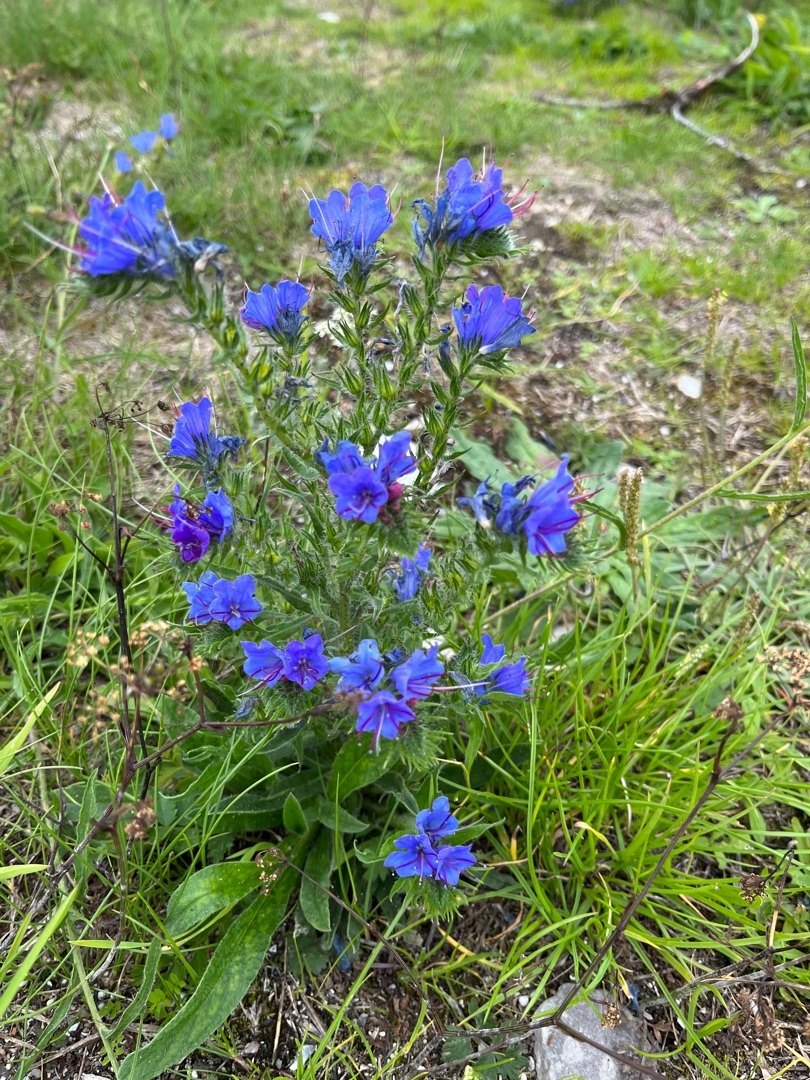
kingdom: Plantae
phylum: Tracheophyta
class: Magnoliopsida
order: Boraginales
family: Boraginaceae
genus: Echium
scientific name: Echium vulgare
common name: Slangehoved
